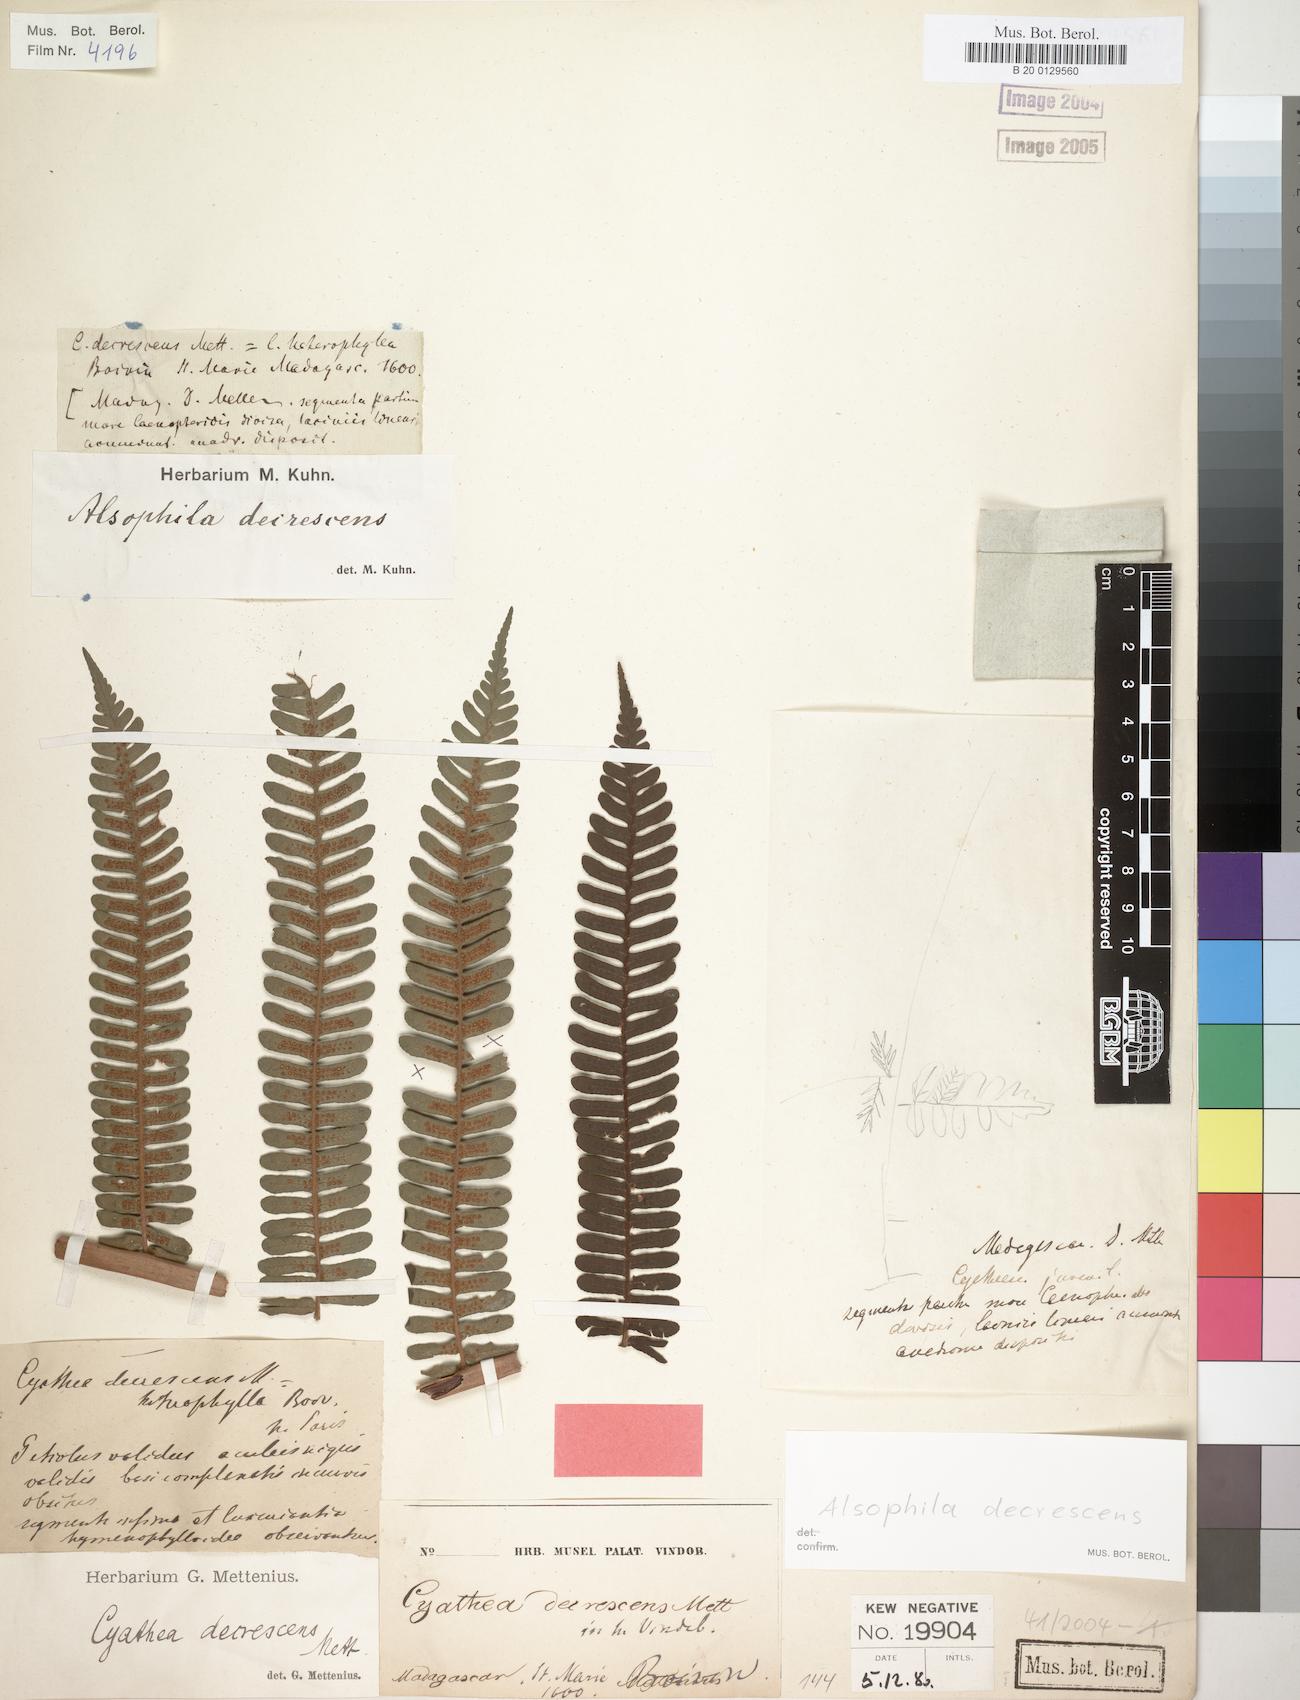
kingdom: Plantae
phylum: Tracheophyta
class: Polypodiopsida
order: Cyatheales
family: Cyatheaceae
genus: Alsophila
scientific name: Alsophila decrescens
